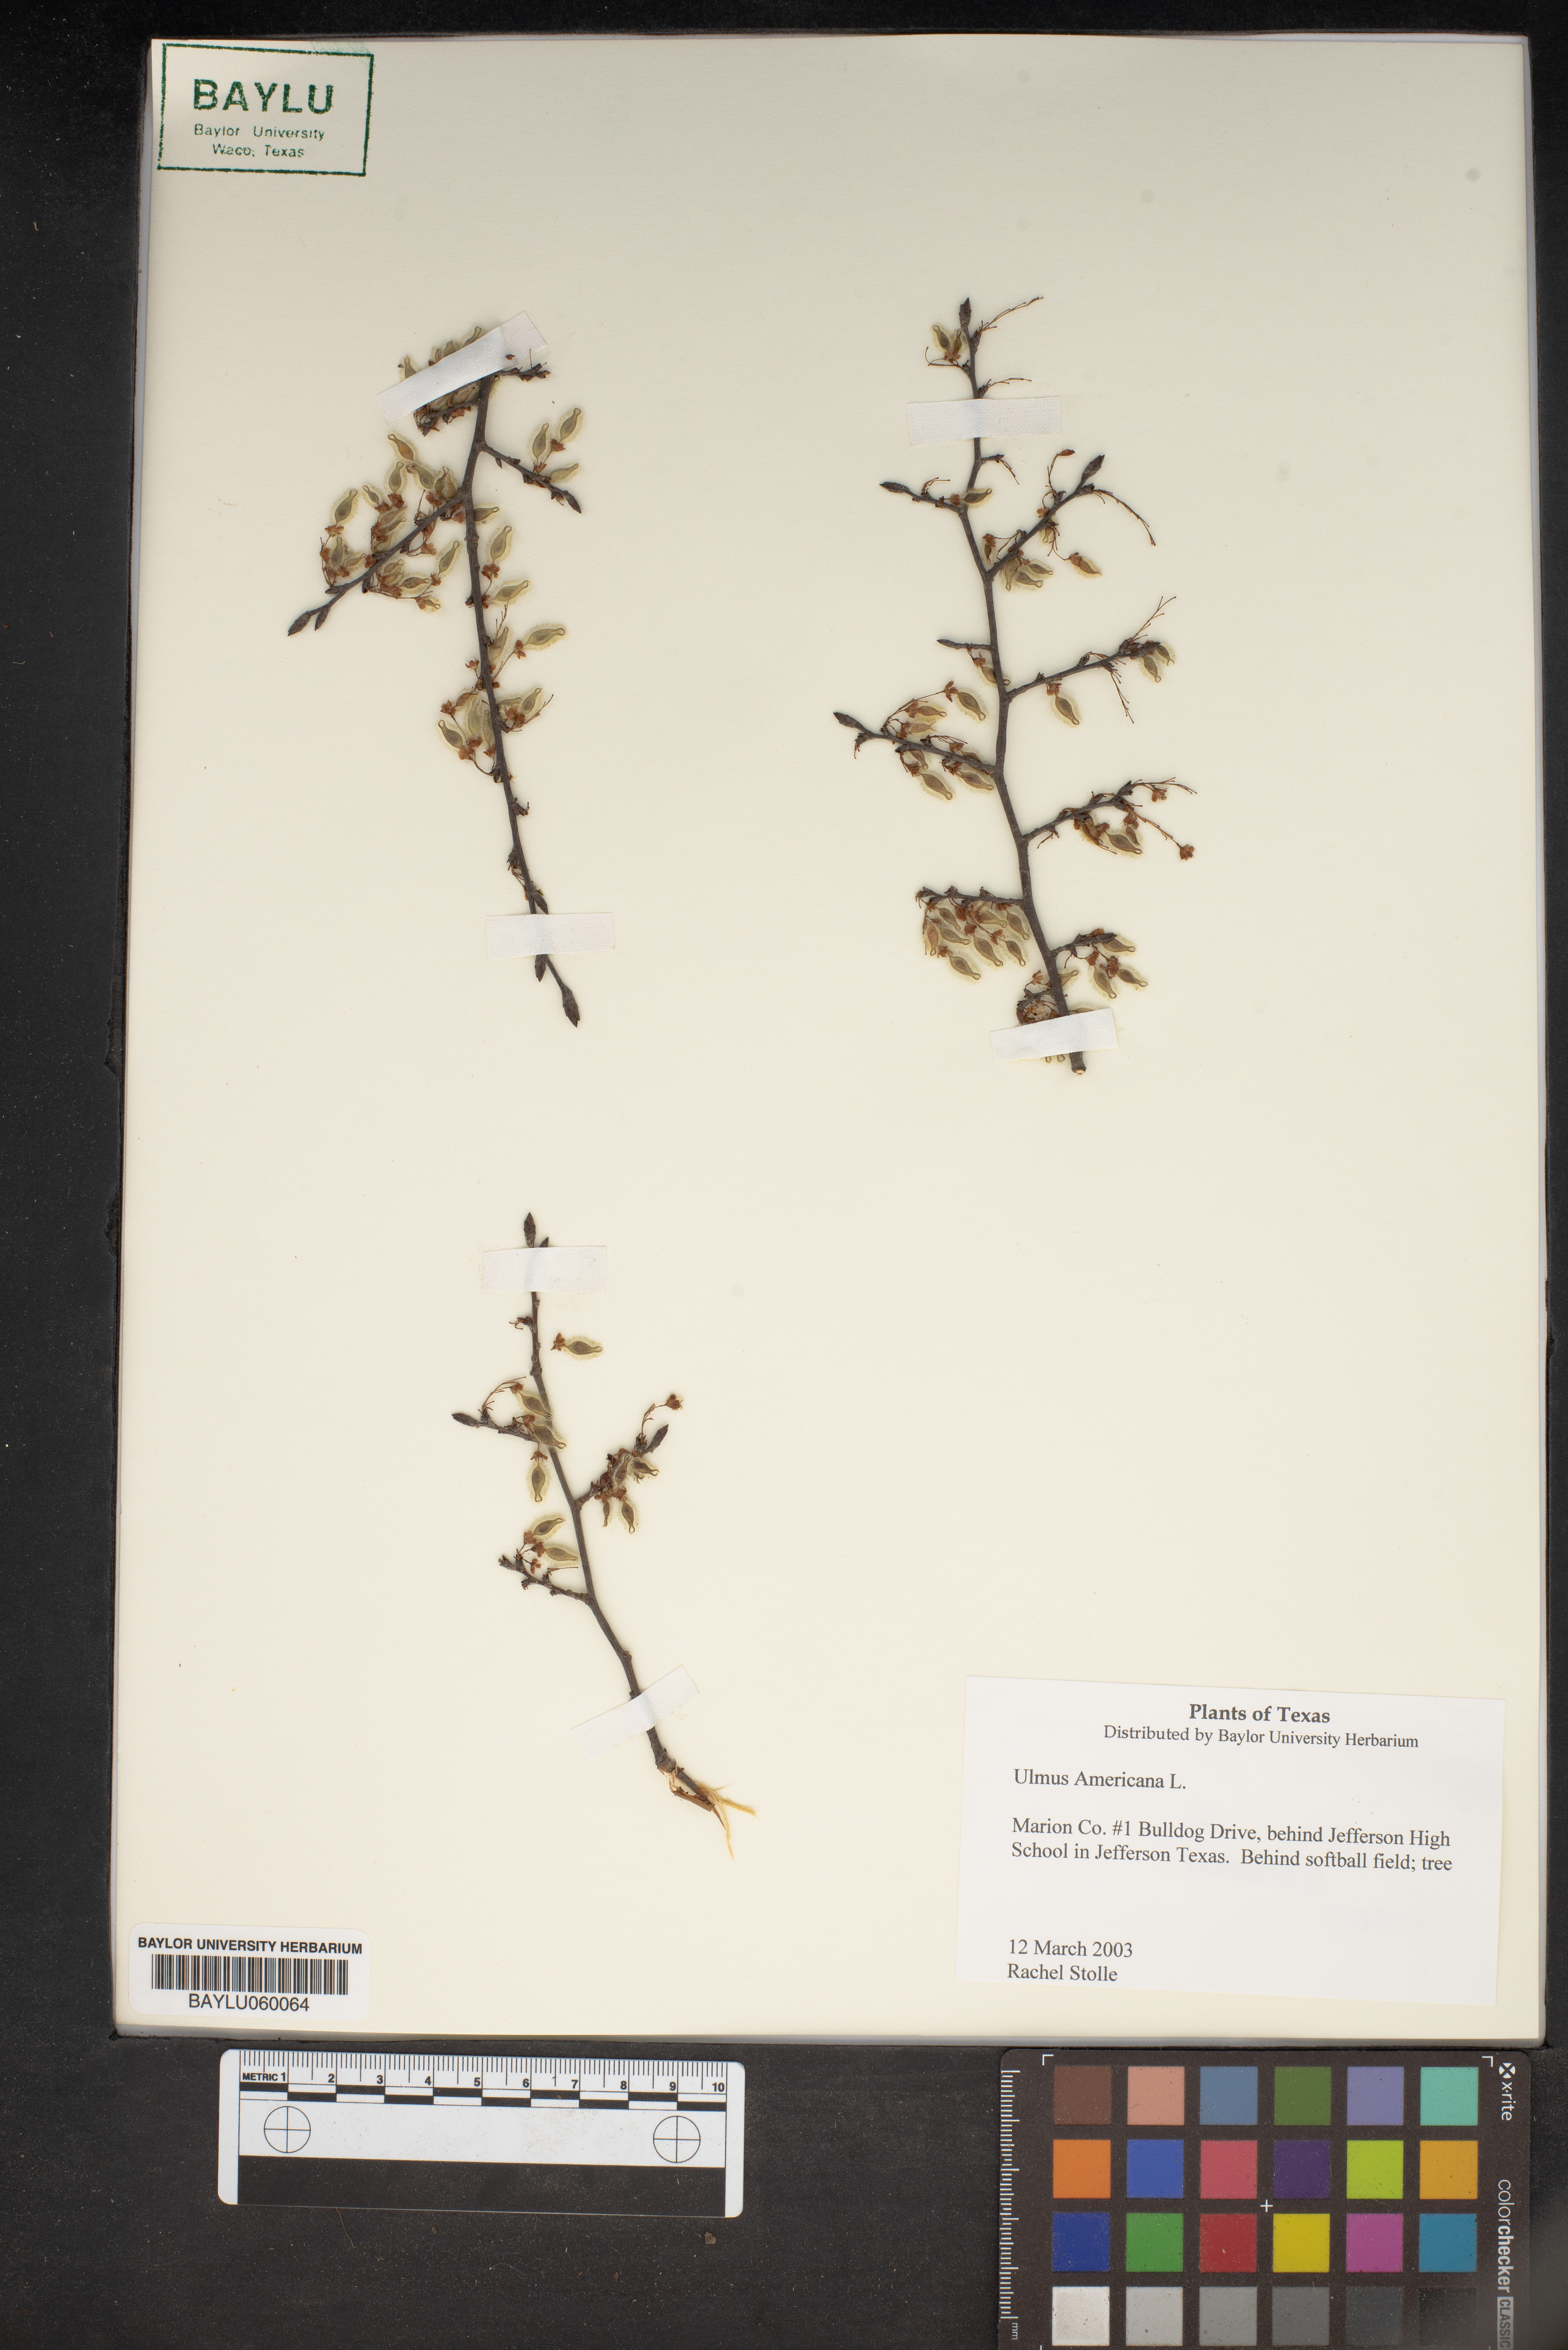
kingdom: Plantae
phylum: Tracheophyta
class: Magnoliopsida
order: Rosales
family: Ulmaceae
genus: Ulmus
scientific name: Ulmus americana
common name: American elm
